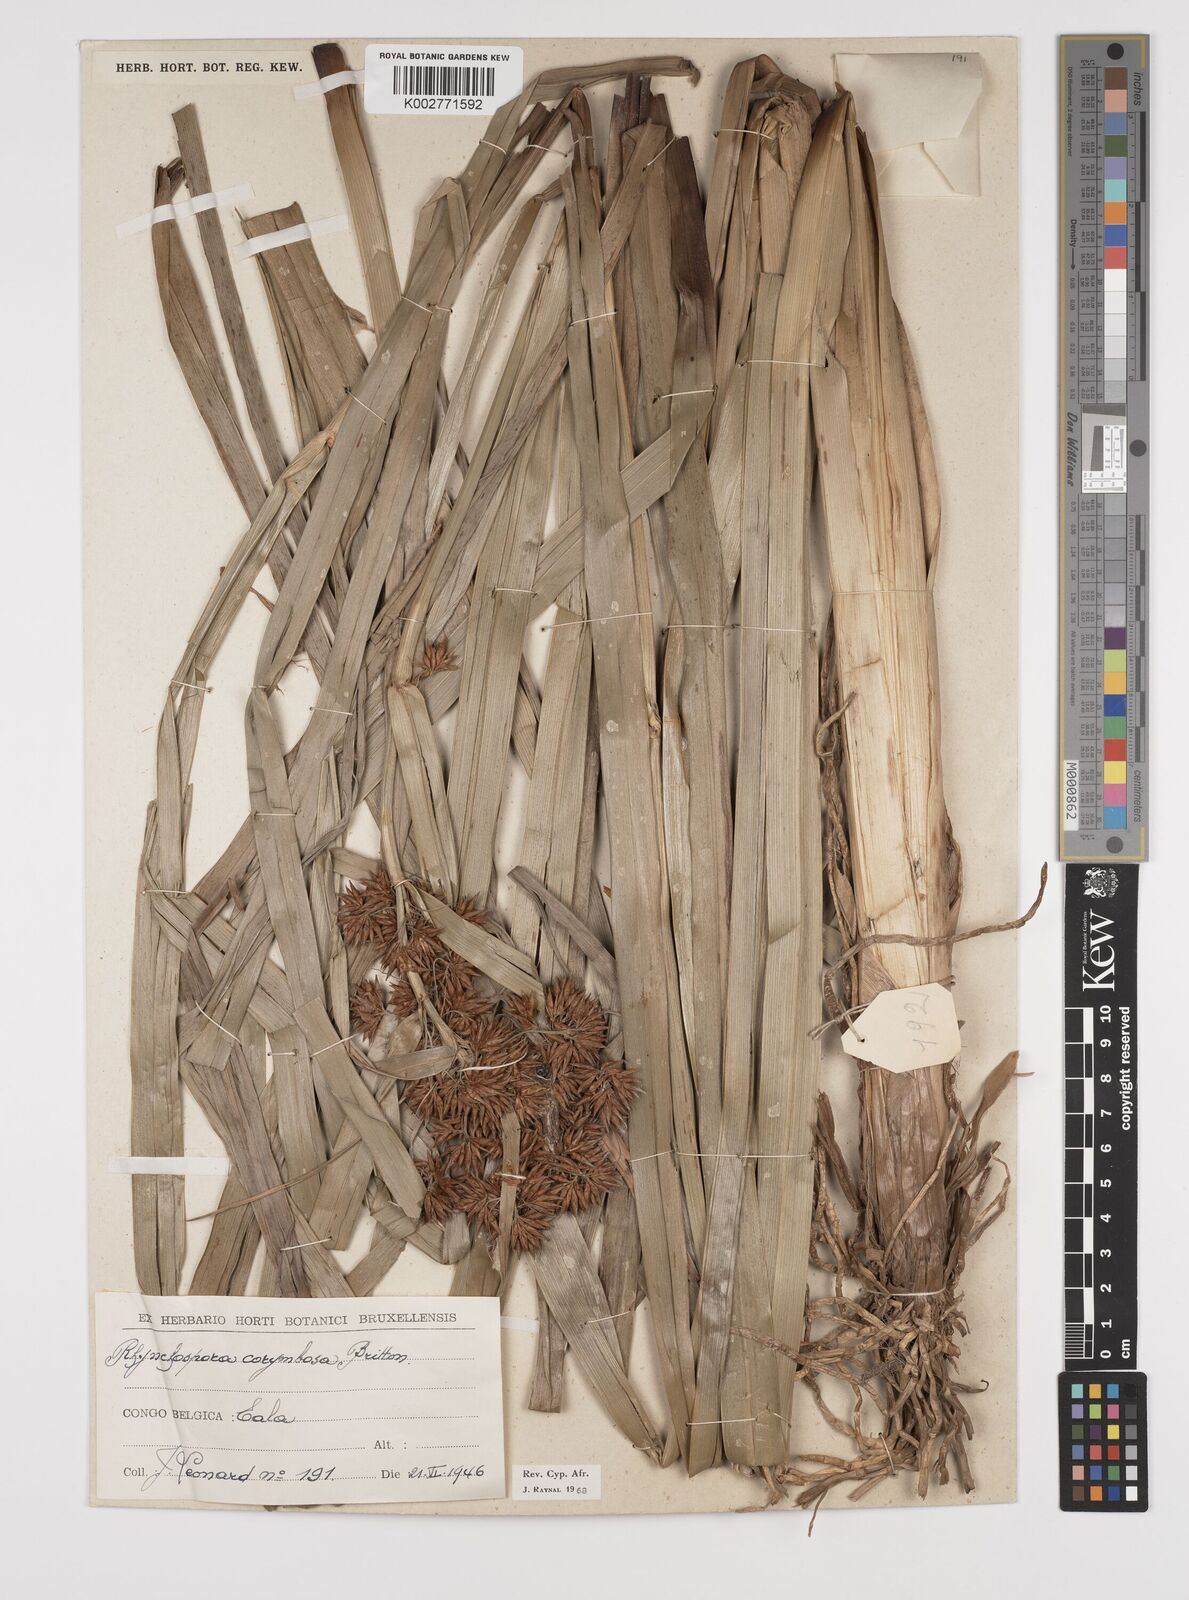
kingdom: Plantae
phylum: Tracheophyta
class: Liliopsida
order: Poales
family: Cyperaceae
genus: Rhynchospora
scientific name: Rhynchospora corymbosa
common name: Golden beak sedge
